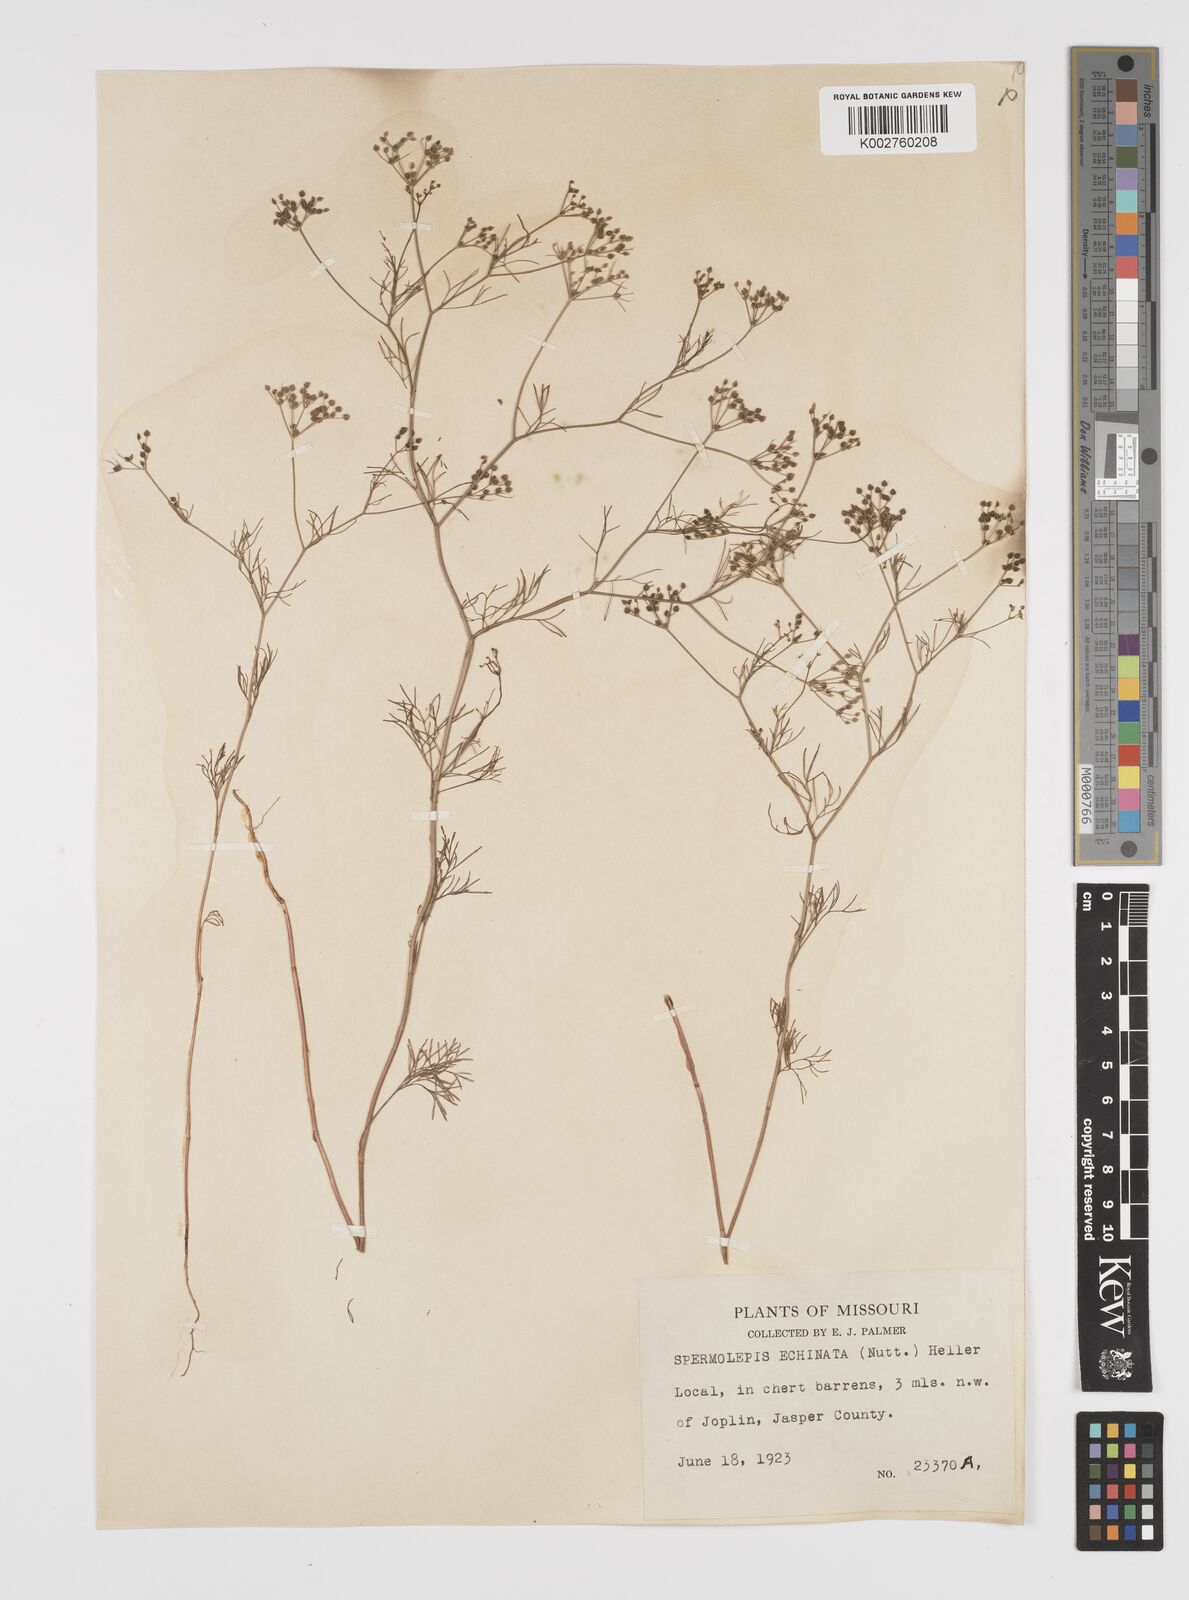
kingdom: Plantae
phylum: Tracheophyta
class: Magnoliopsida
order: Apiales
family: Apiaceae
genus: Spermolepis
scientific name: Spermolepis echinata
